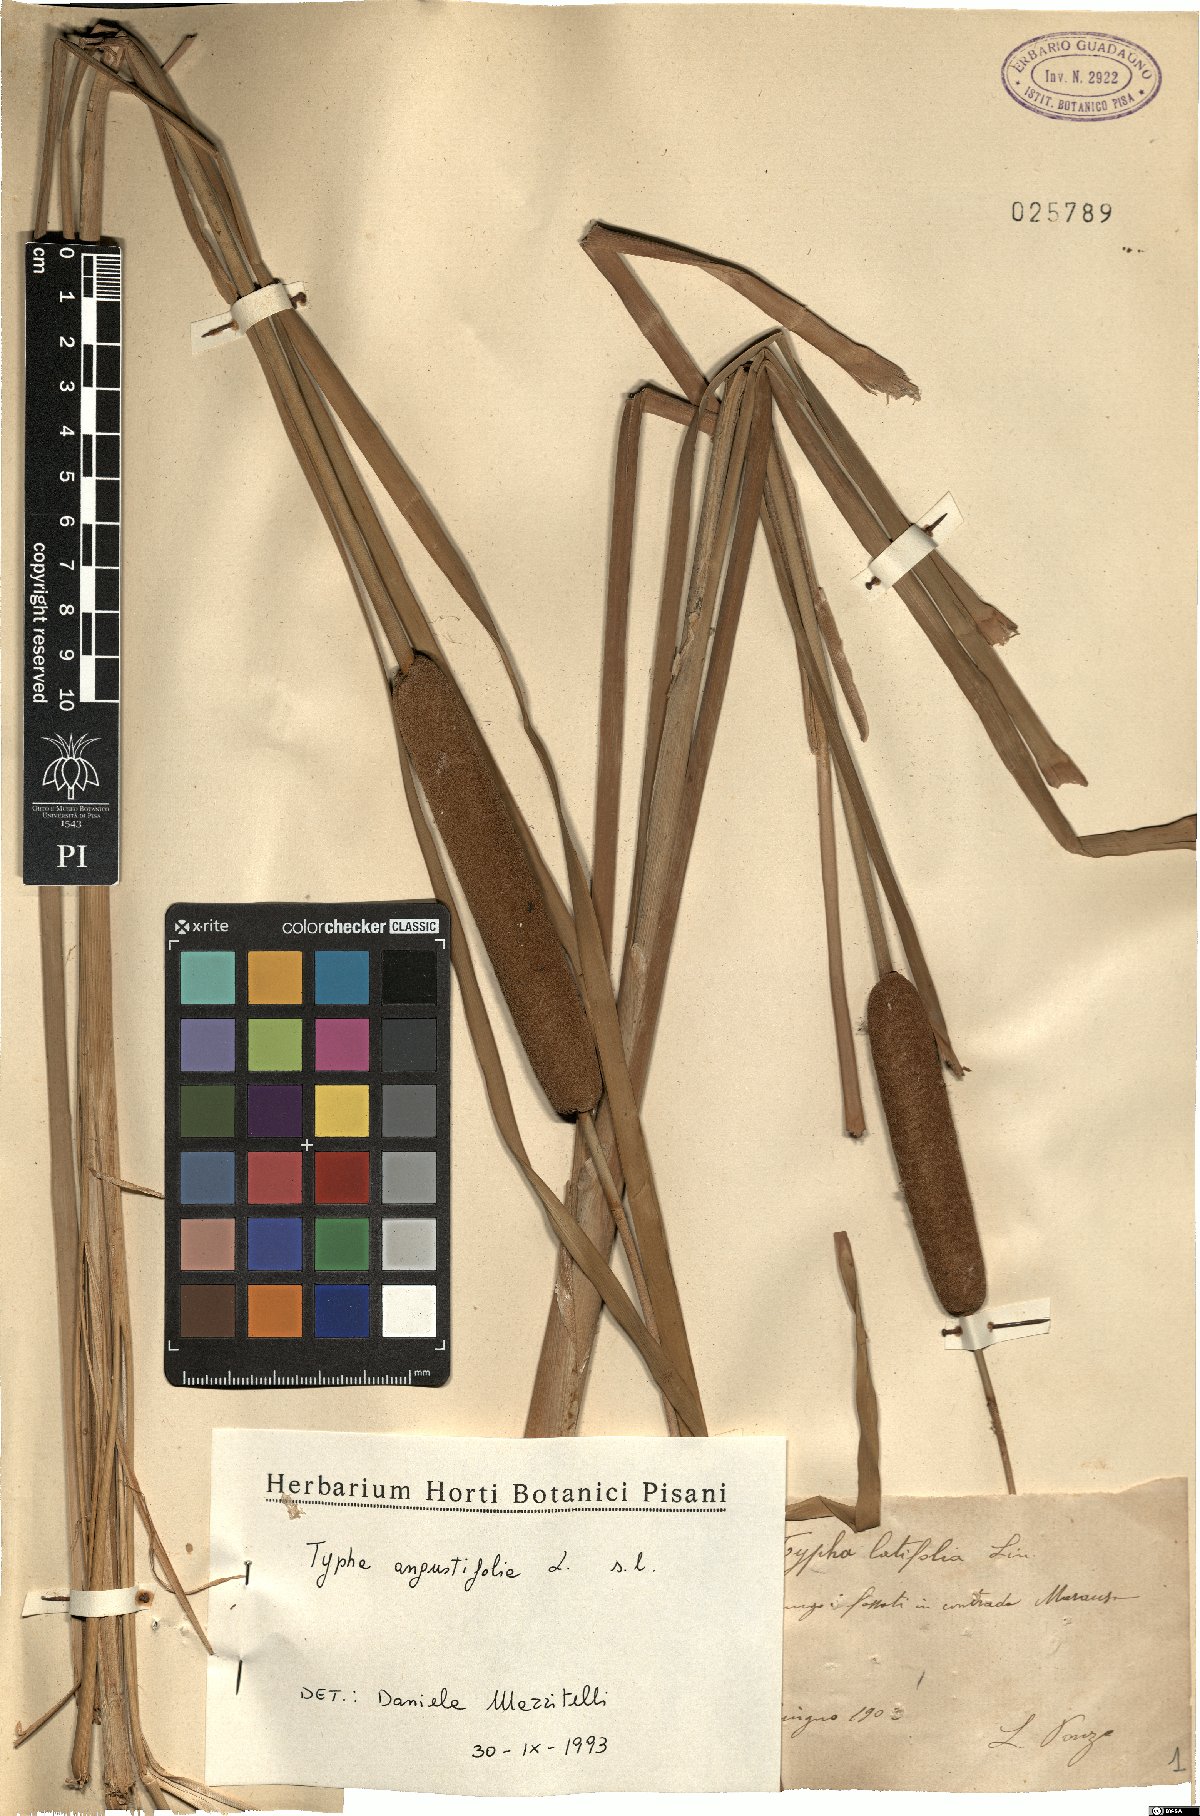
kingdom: Plantae
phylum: Tracheophyta
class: Liliopsida
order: Poales
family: Typhaceae
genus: Typha
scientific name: Typha angustifolia
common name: Lesser bulrush
